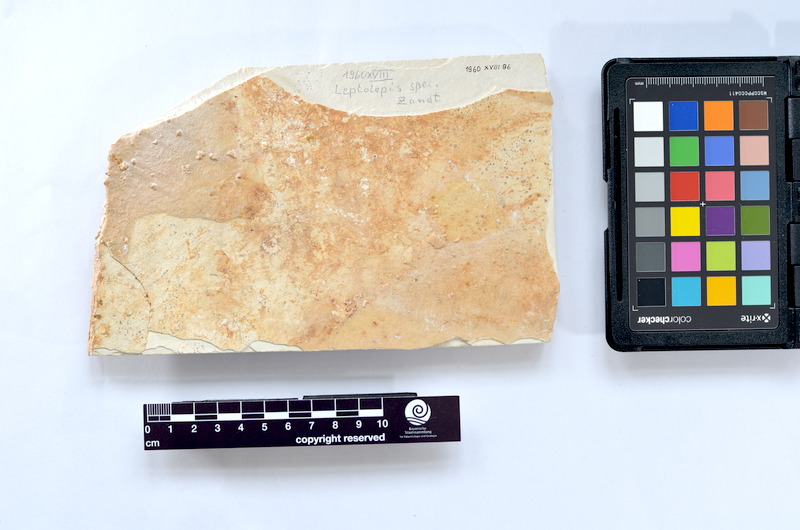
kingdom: Animalia
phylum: Chordata
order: Elopiformes
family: Anaethalionidae
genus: Anaethalion
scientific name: Anaethalion knorri
